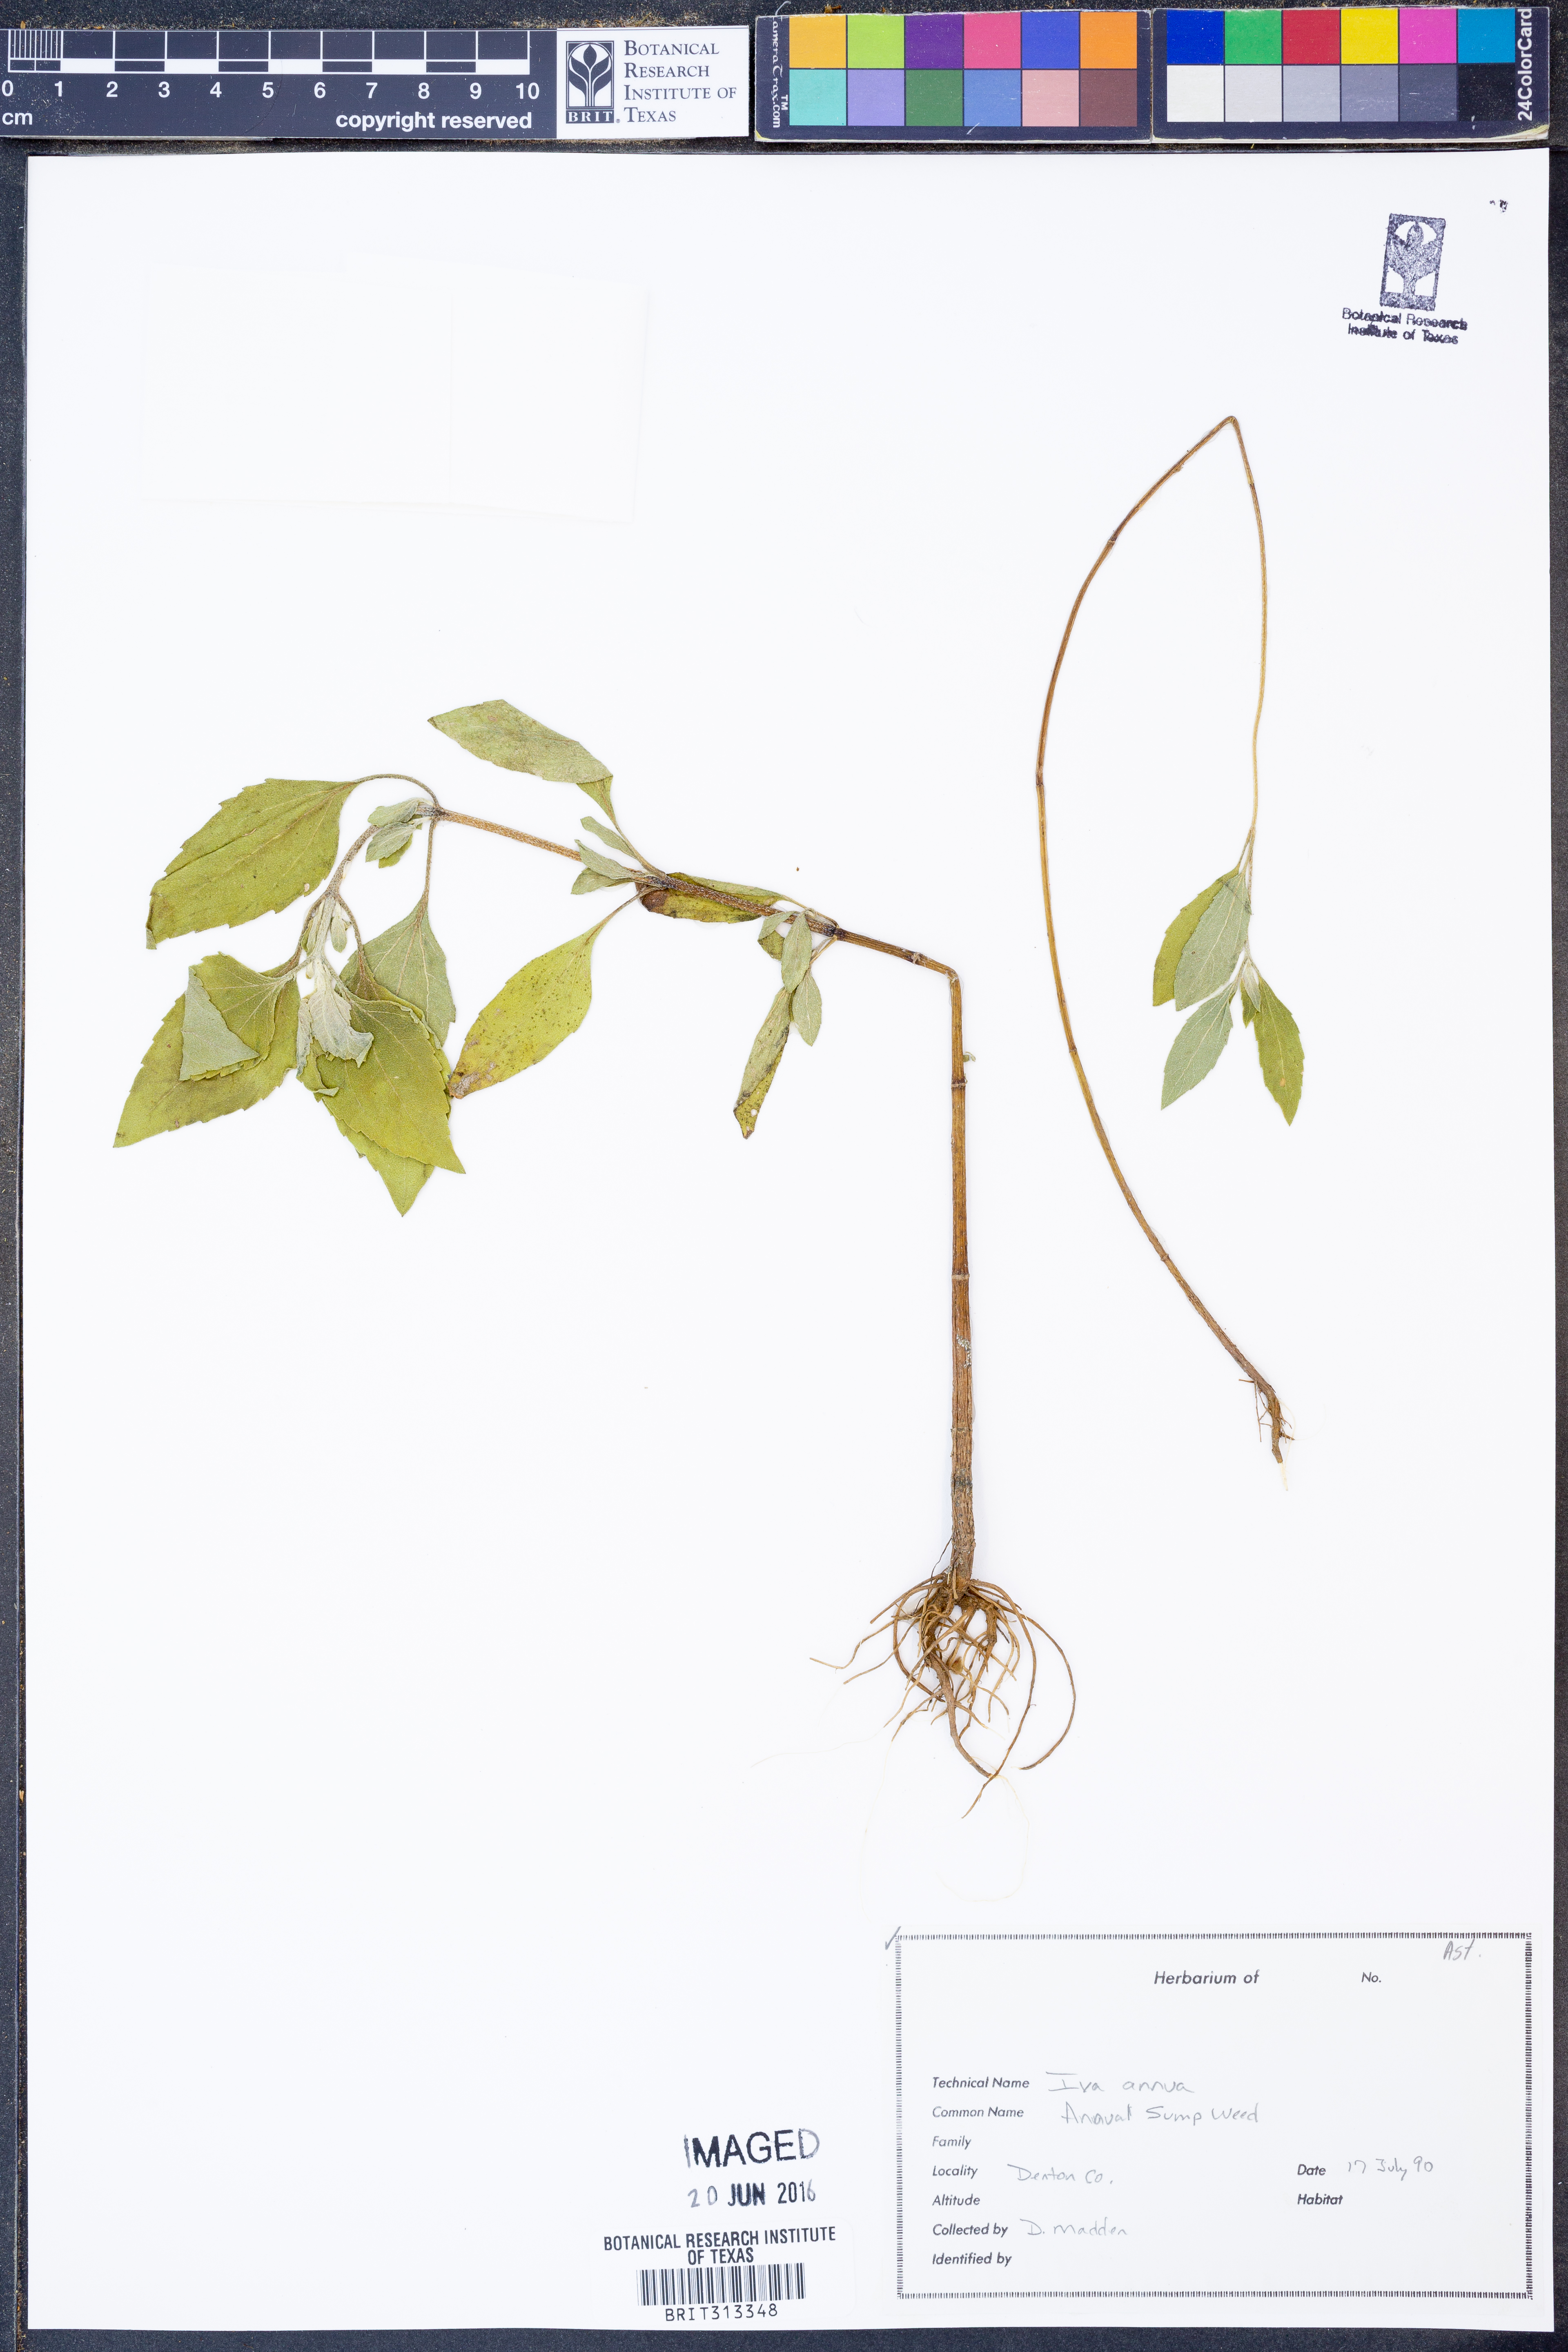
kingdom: Plantae
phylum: Tracheophyta
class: Magnoliopsida
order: Asterales
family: Asteraceae
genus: Iva
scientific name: Iva annua
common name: Marsh-elder
